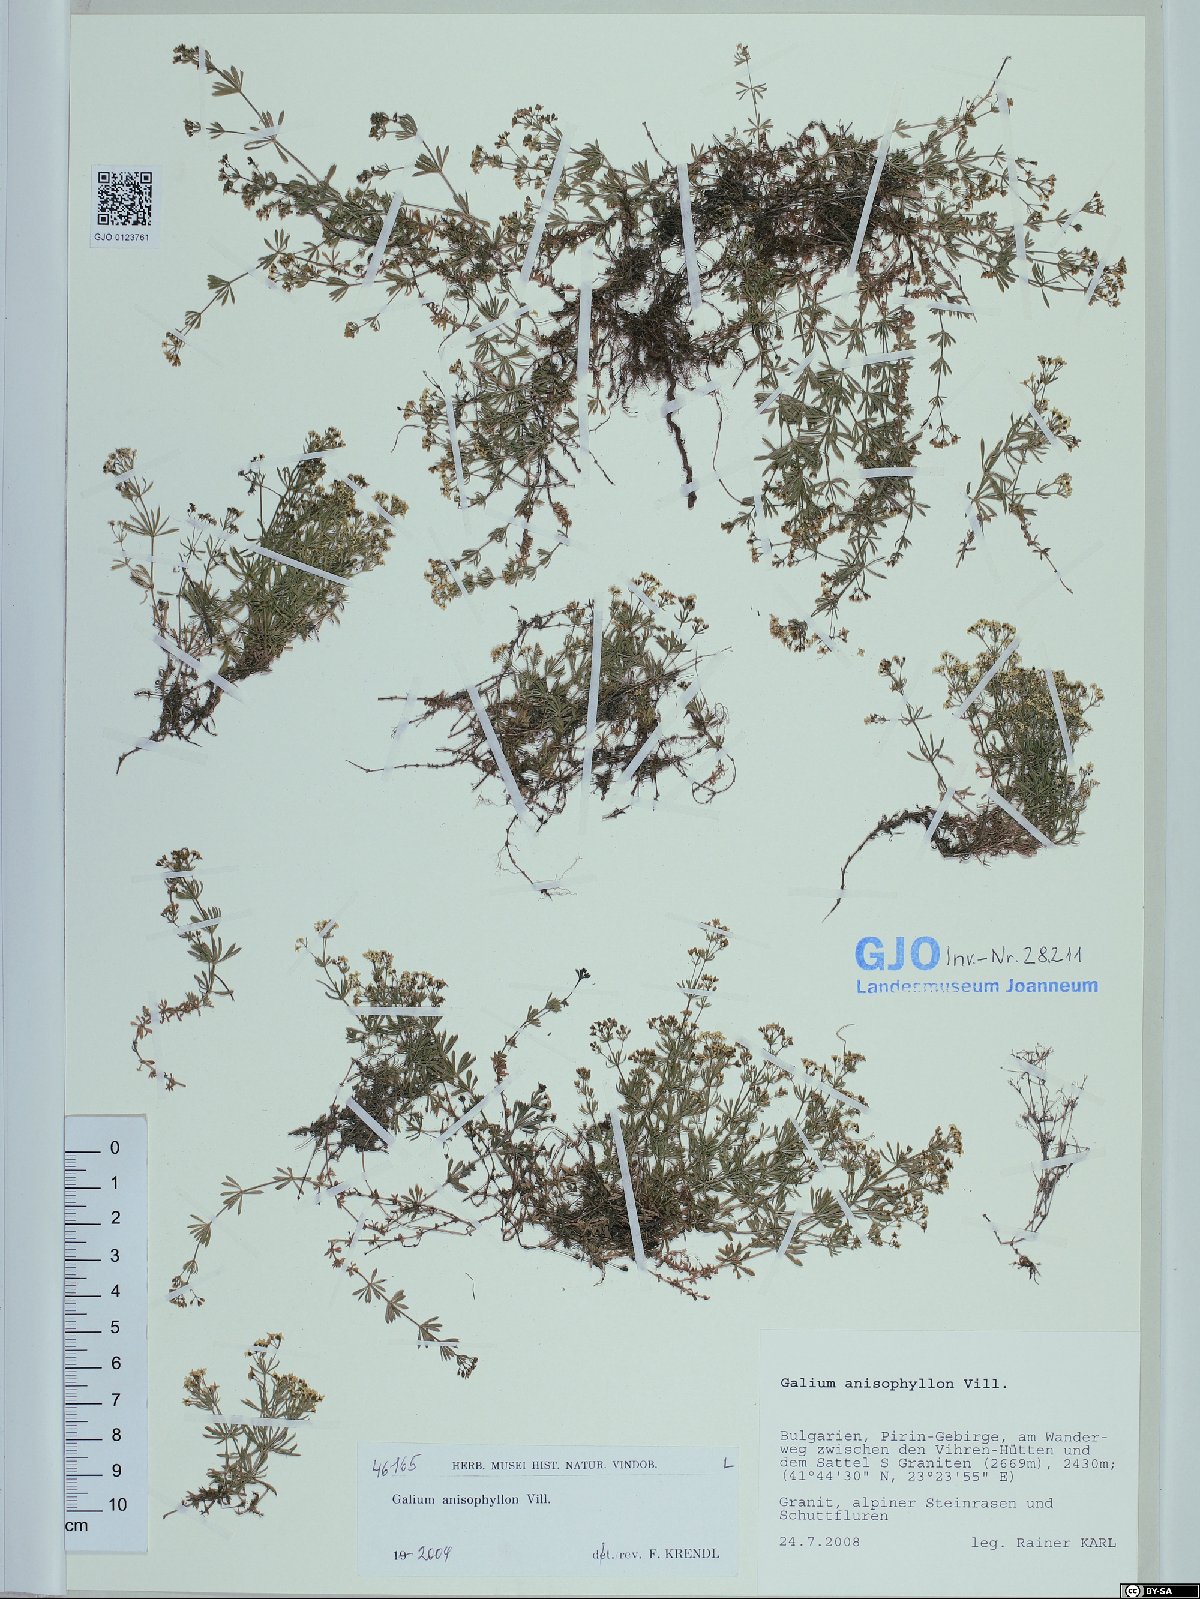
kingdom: Plantae
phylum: Tracheophyta
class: Magnoliopsida
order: Gentianales
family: Rubiaceae
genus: Galium
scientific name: Galium anisophyllon
